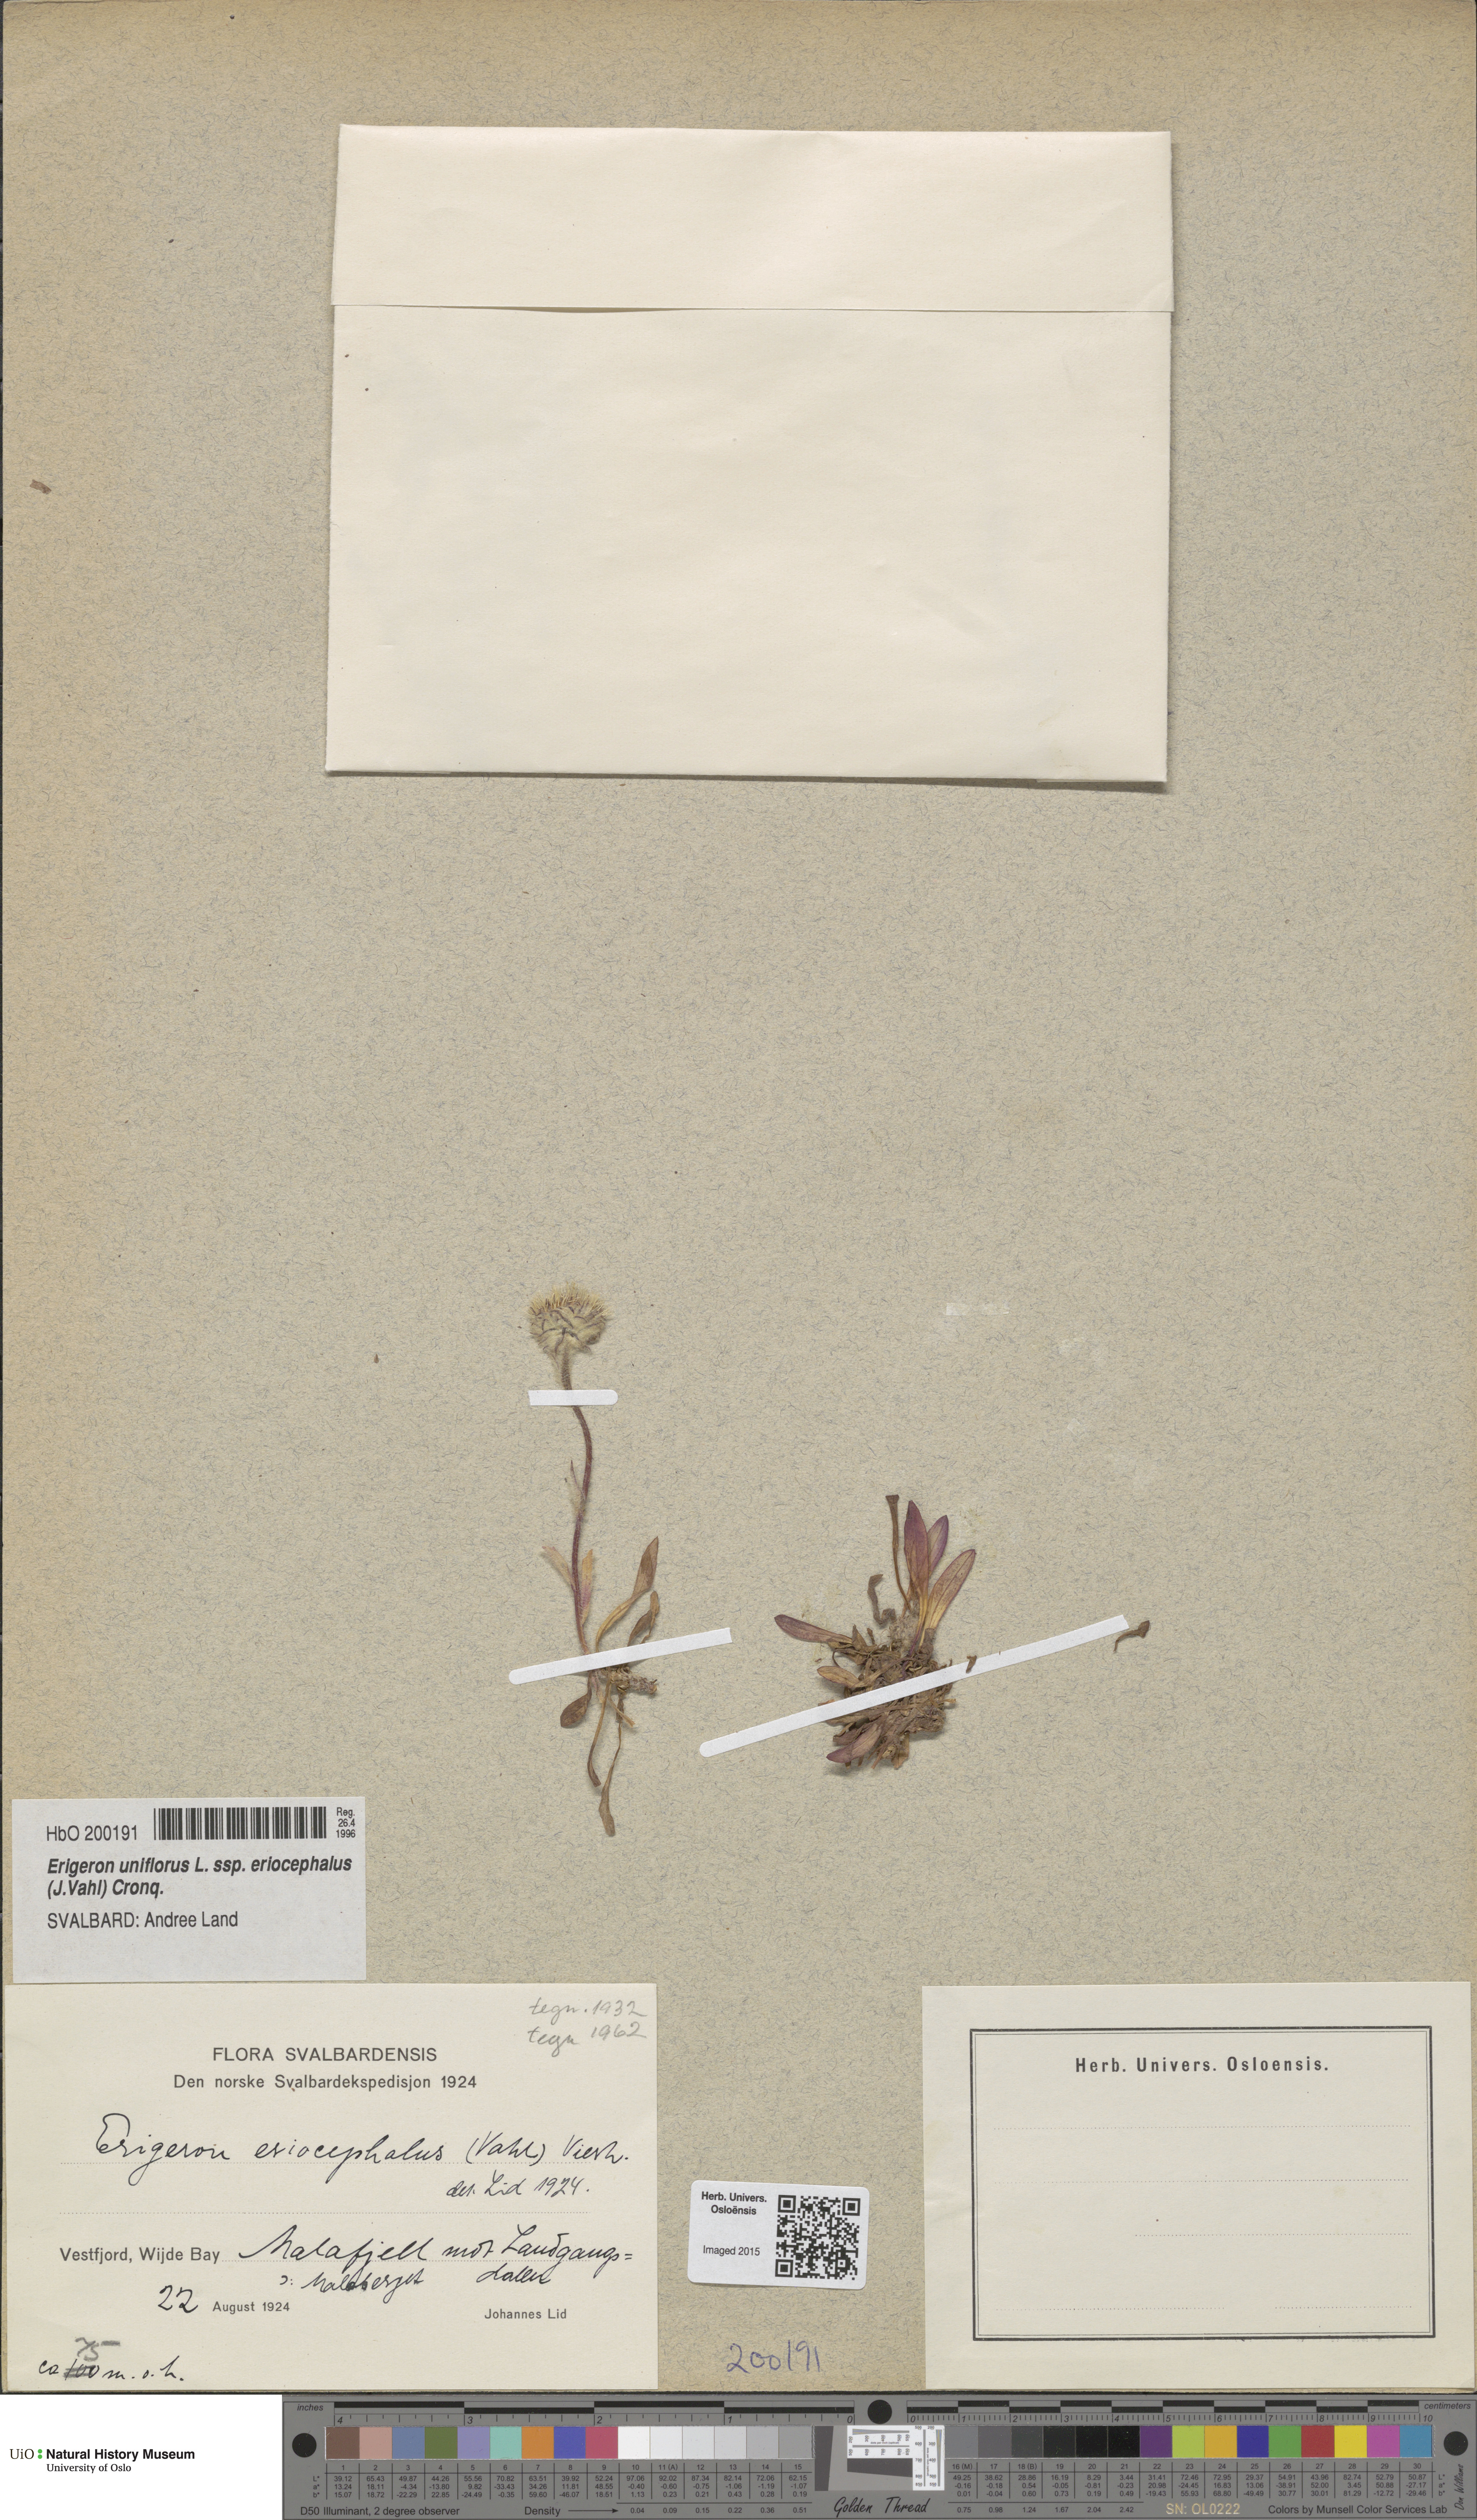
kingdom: Plantae
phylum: Tracheophyta
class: Magnoliopsida
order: Asterales
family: Asteraceae
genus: Erigeron
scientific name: Erigeron eriocephalus
